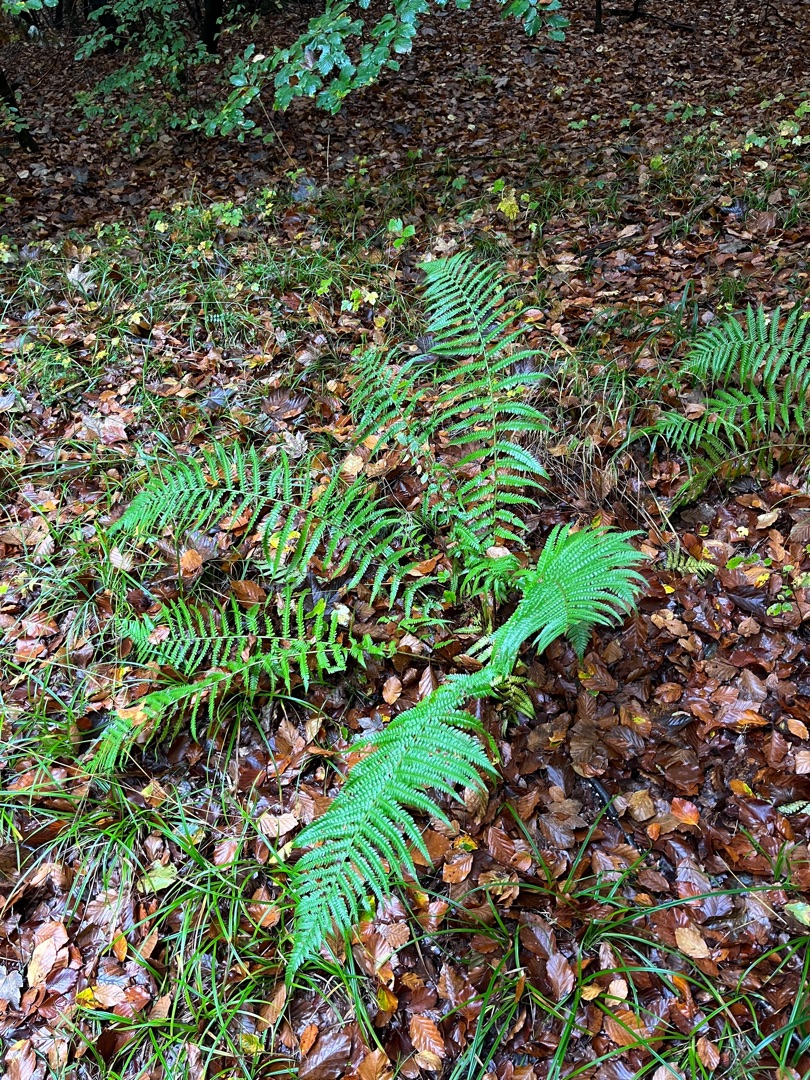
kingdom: Plantae
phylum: Tracheophyta
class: Polypodiopsida
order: Polypodiales
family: Dryopteridaceae
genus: Dryopteris
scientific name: Dryopteris filix-mas
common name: Almindelig mangeløv
